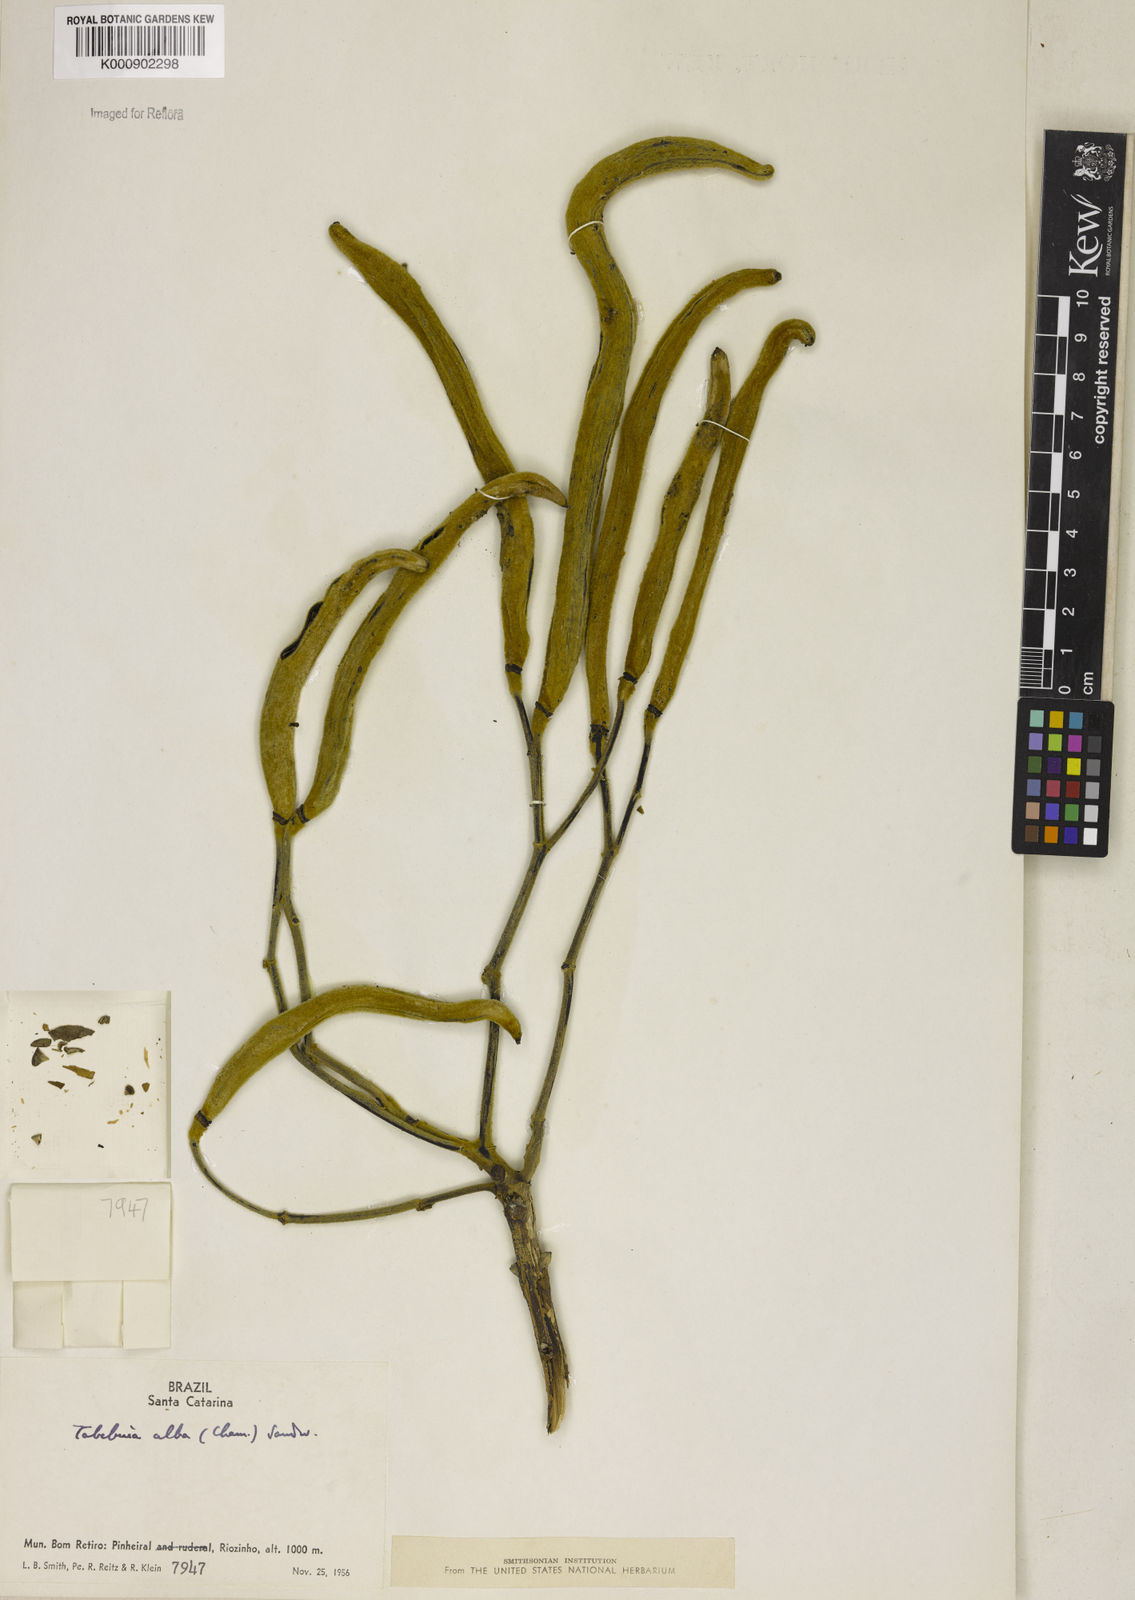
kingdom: Plantae
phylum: Tracheophyta
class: Magnoliopsida
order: Lamiales
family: Bignoniaceae
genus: Handroanthus
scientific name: Handroanthus albus
